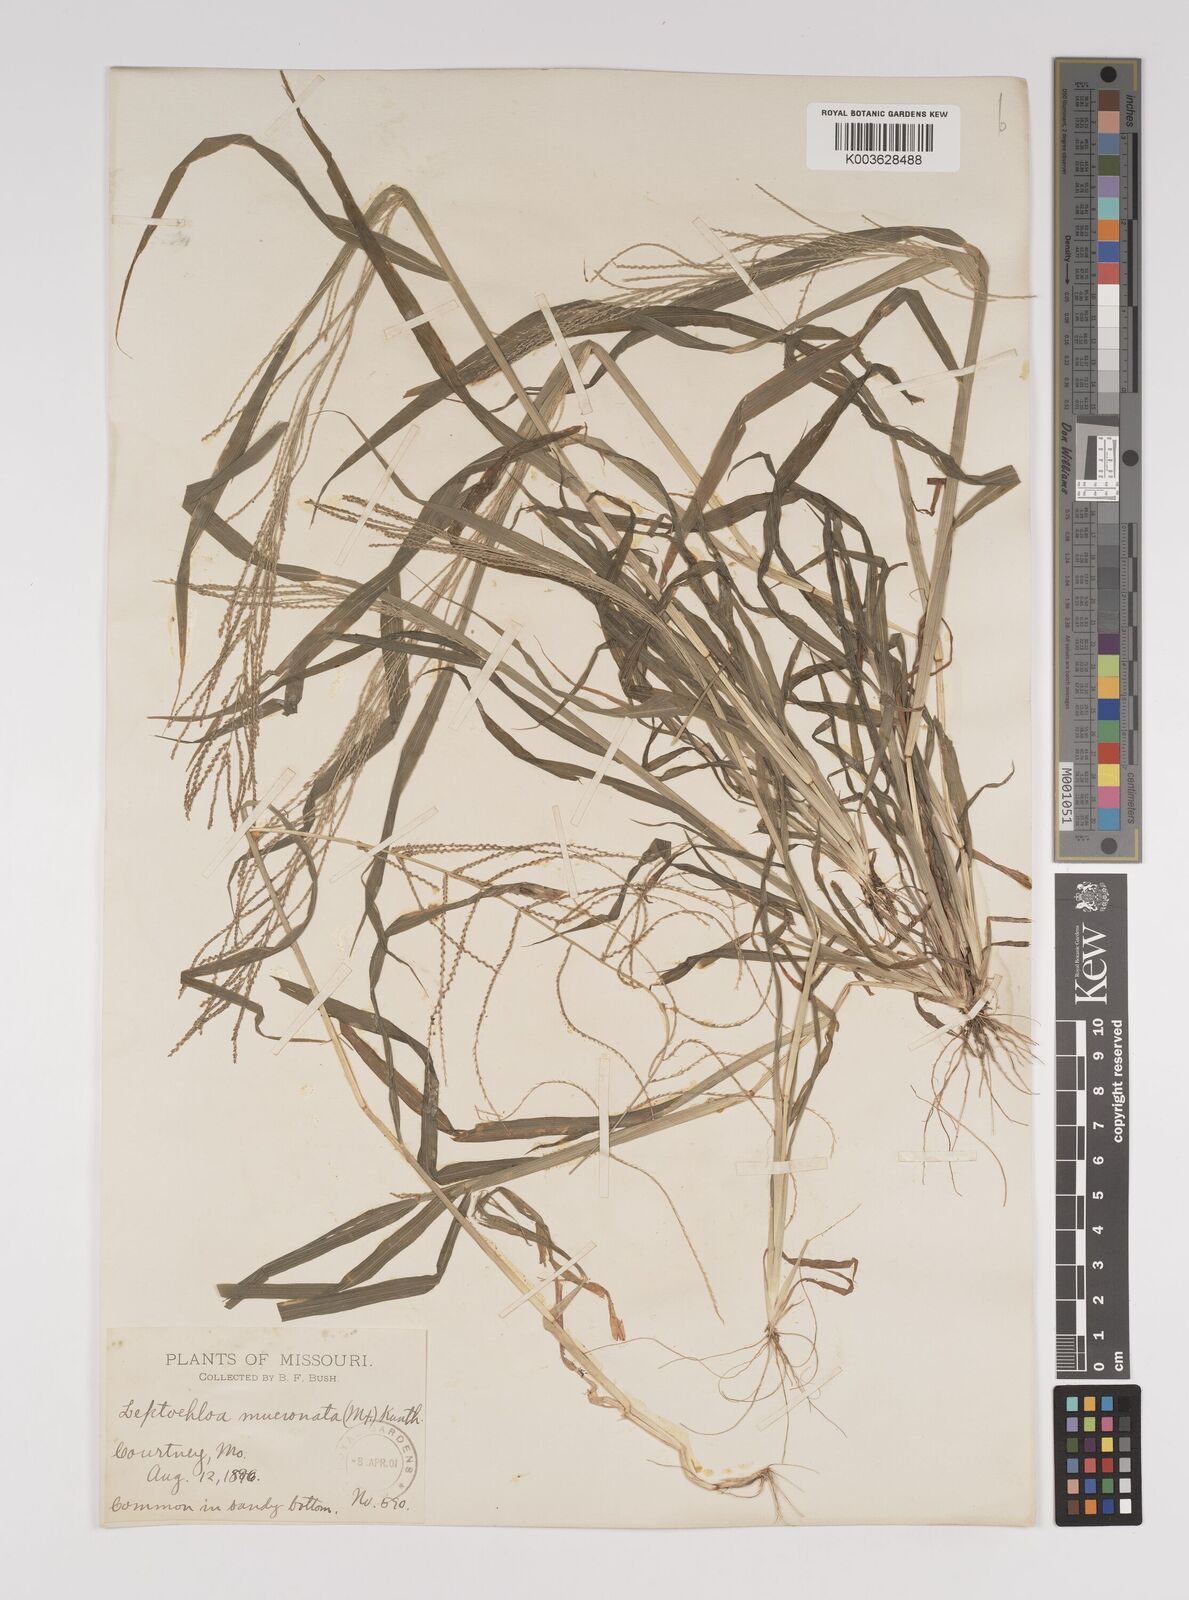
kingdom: Plantae
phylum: Tracheophyta
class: Liliopsida
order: Poales
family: Poaceae
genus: Leptochloa
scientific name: Leptochloa panicea
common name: Mucronate sprangletop
